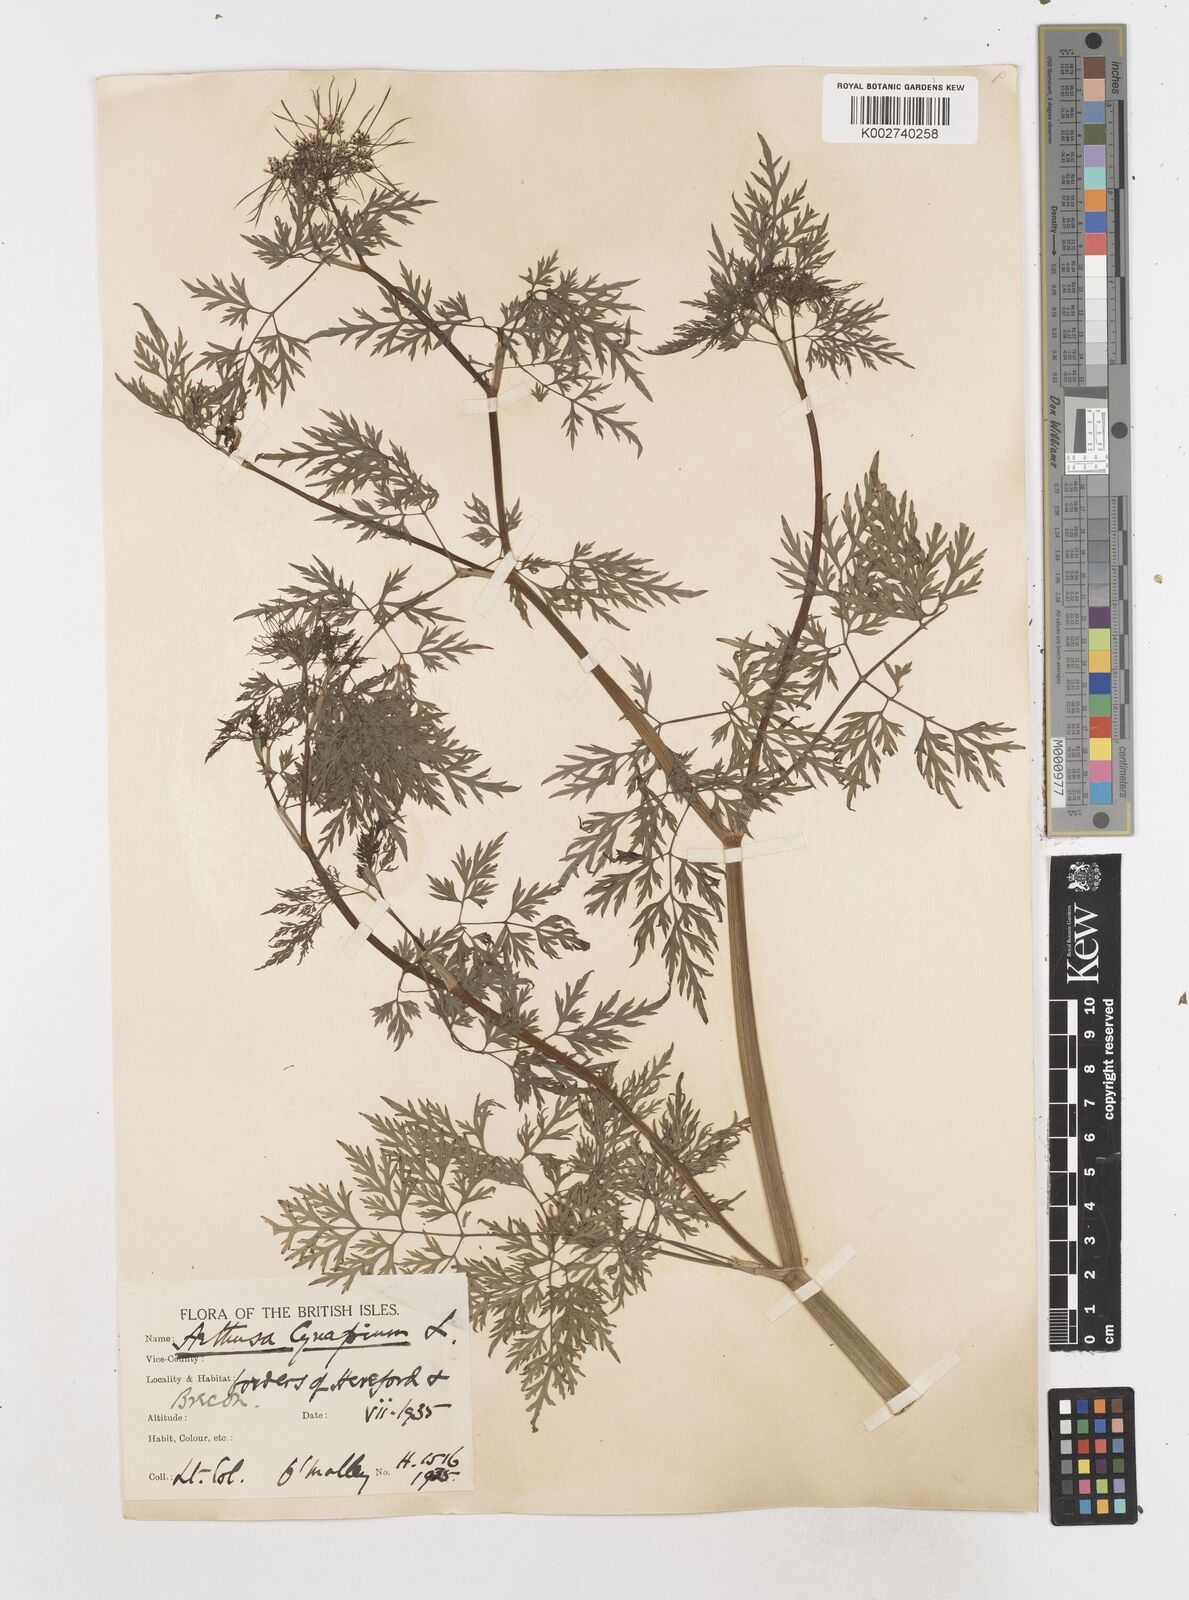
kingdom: Plantae
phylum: Tracheophyta
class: Magnoliopsida
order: Apiales
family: Apiaceae
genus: Aethusa
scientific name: Aethusa cynapium
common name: Fool's parsley
